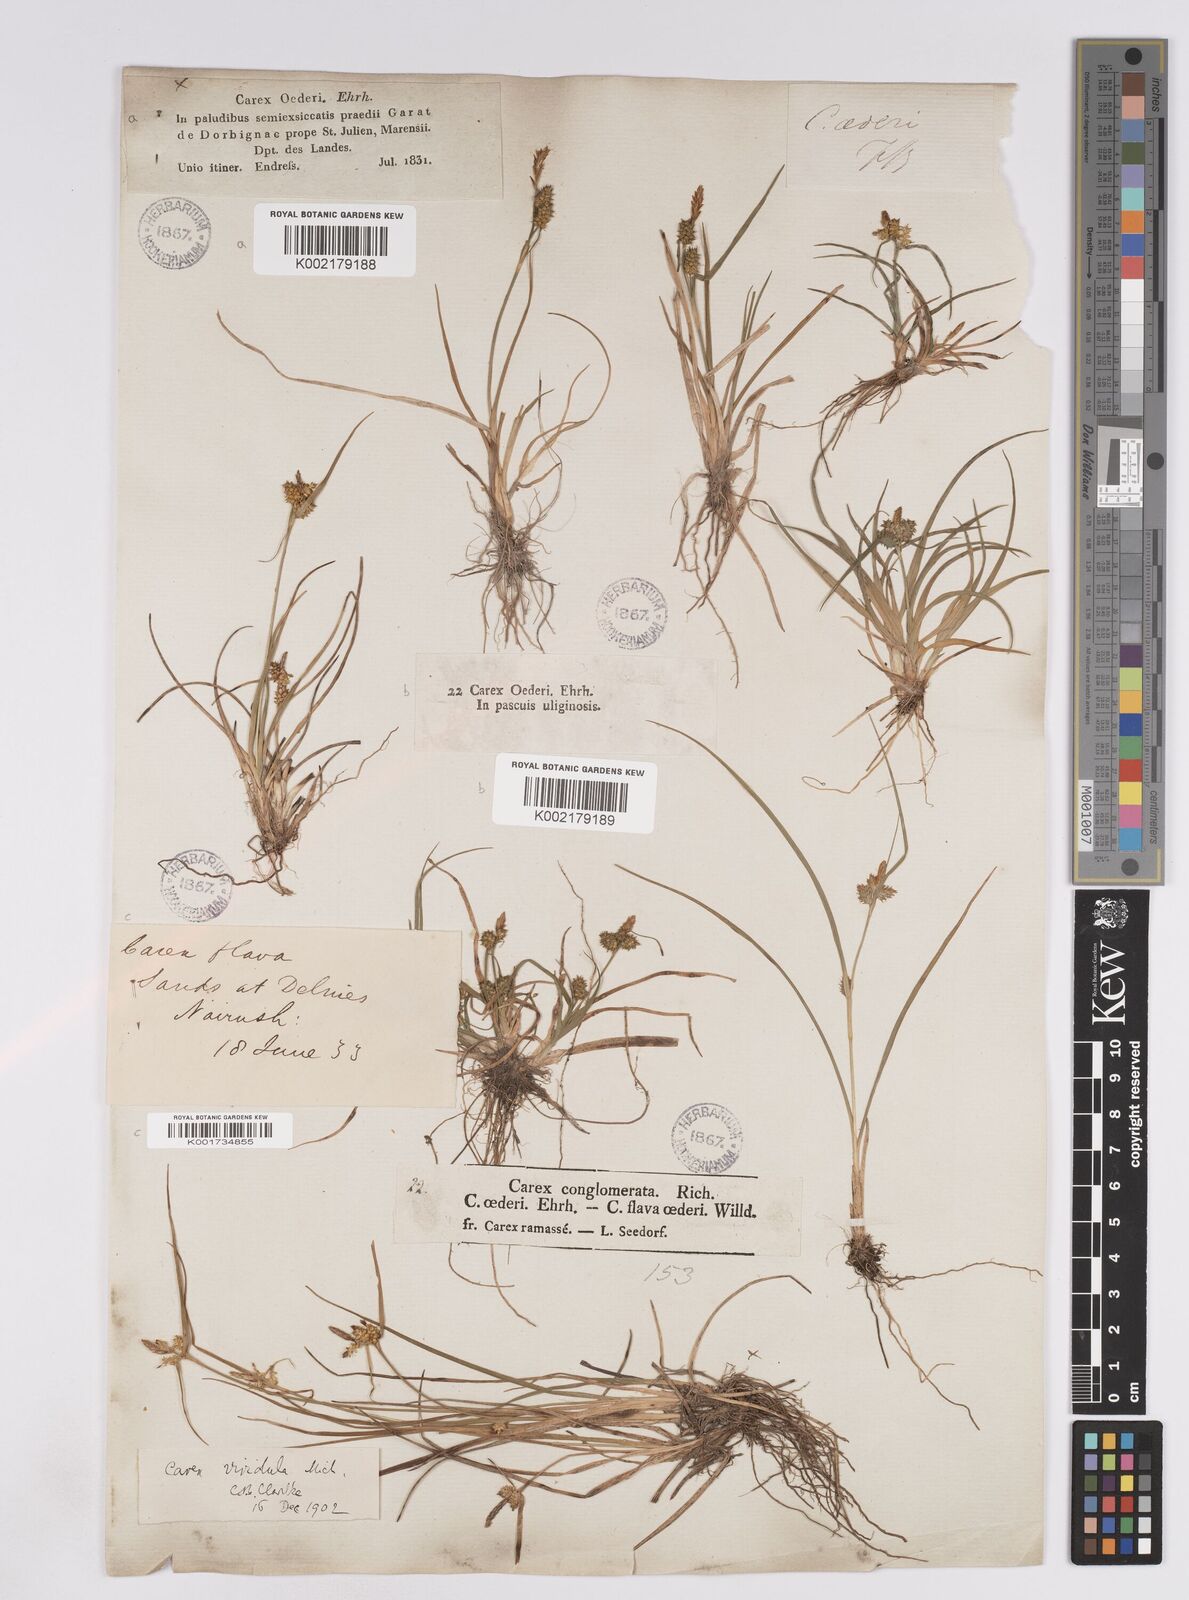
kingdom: Plantae
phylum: Tracheophyta
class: Liliopsida
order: Poales
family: Cyperaceae
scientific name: Cyperaceae
